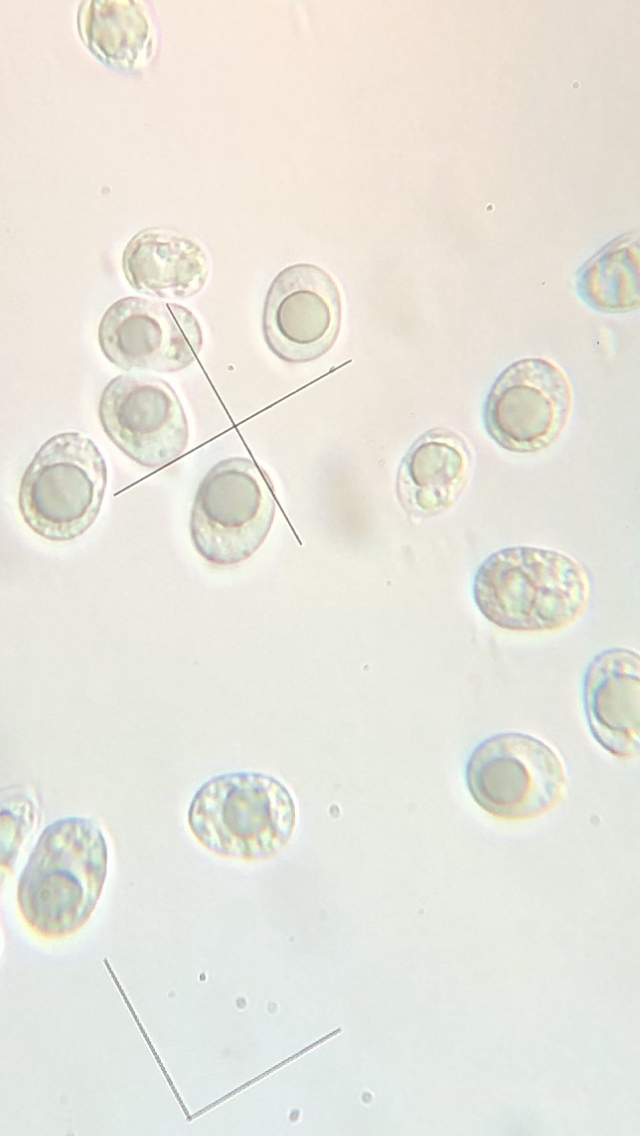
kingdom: Fungi
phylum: Basidiomycota
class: Agaricomycetes
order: Agaricales
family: Mycenaceae
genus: Mycena
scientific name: Mycena galericulata
